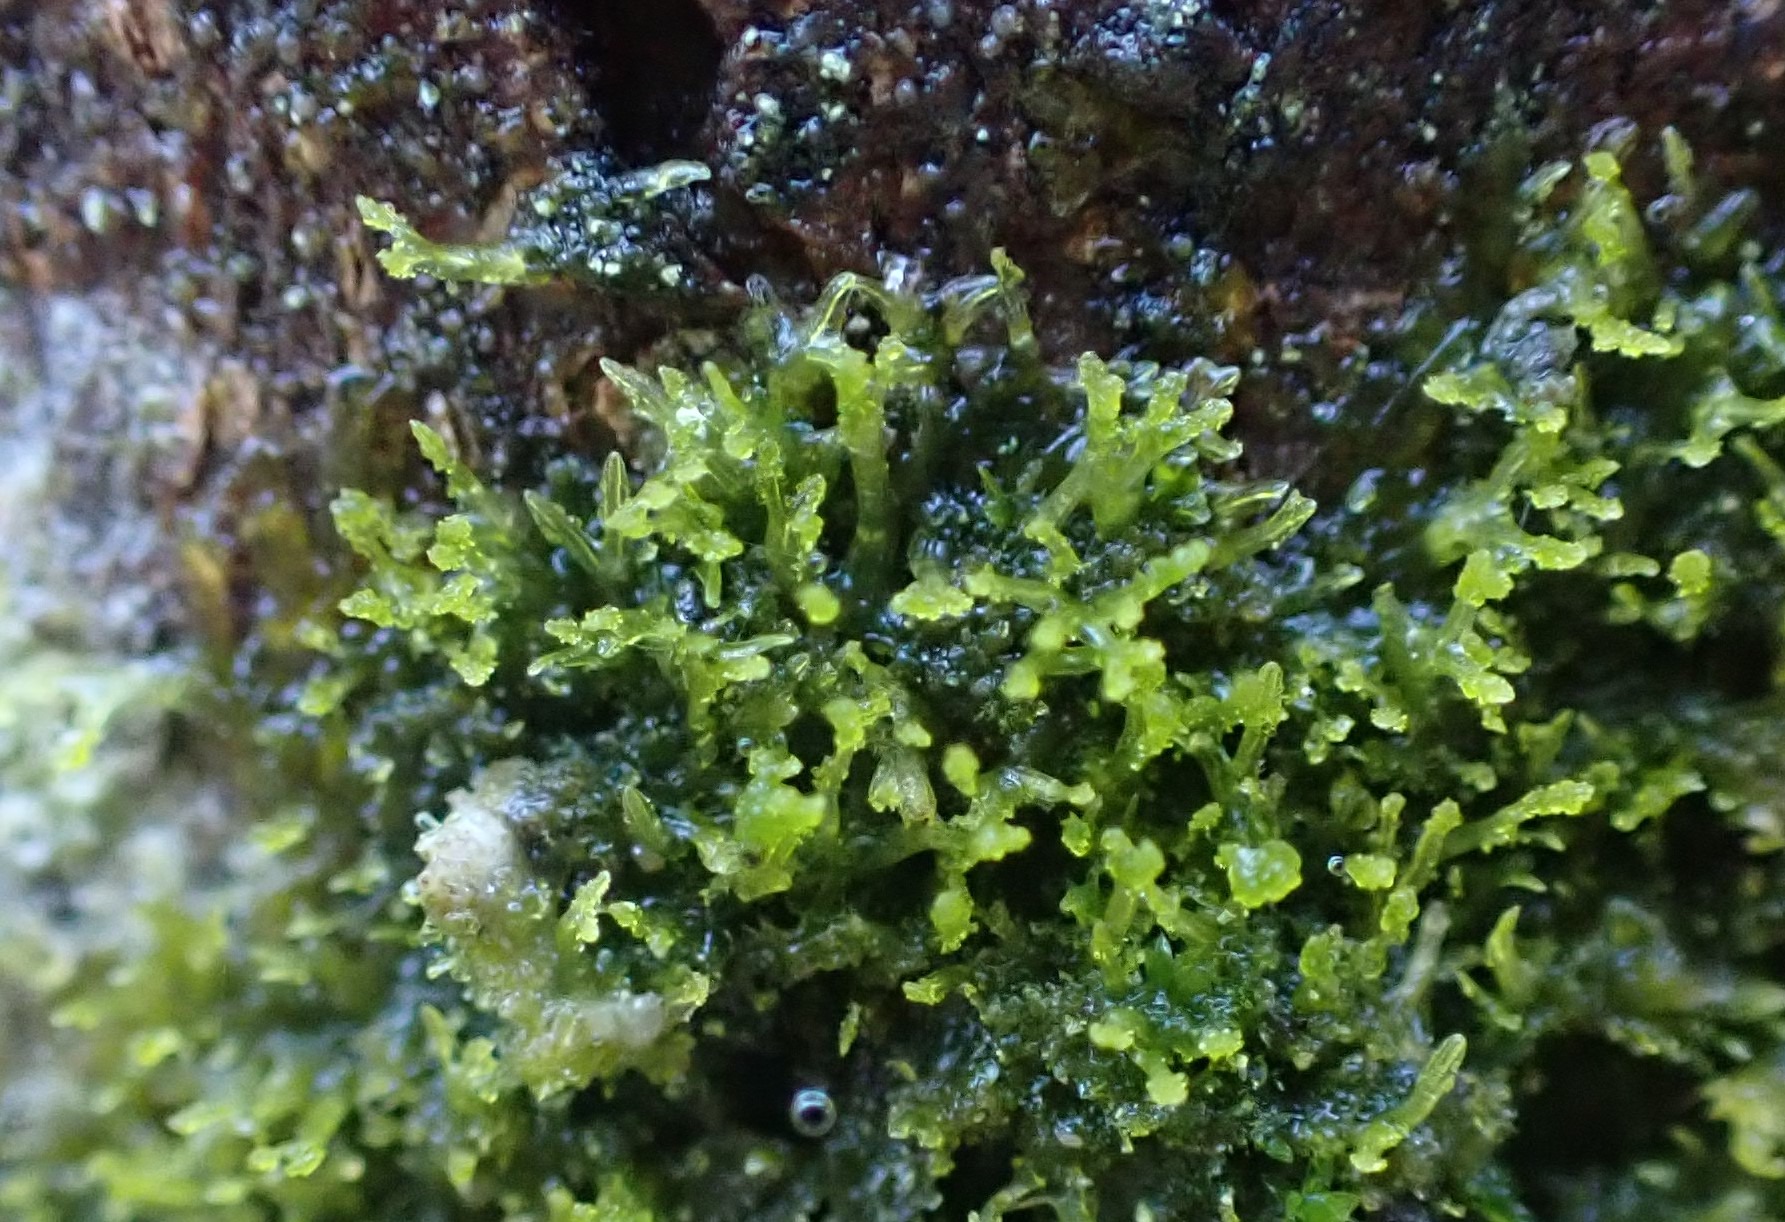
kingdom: Plantae
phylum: Marchantiophyta
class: Jungermanniopsida
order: Metzgeriales
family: Aneuraceae
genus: Riccardia
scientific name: Riccardia palmata
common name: Blågrøn gaffelløv
